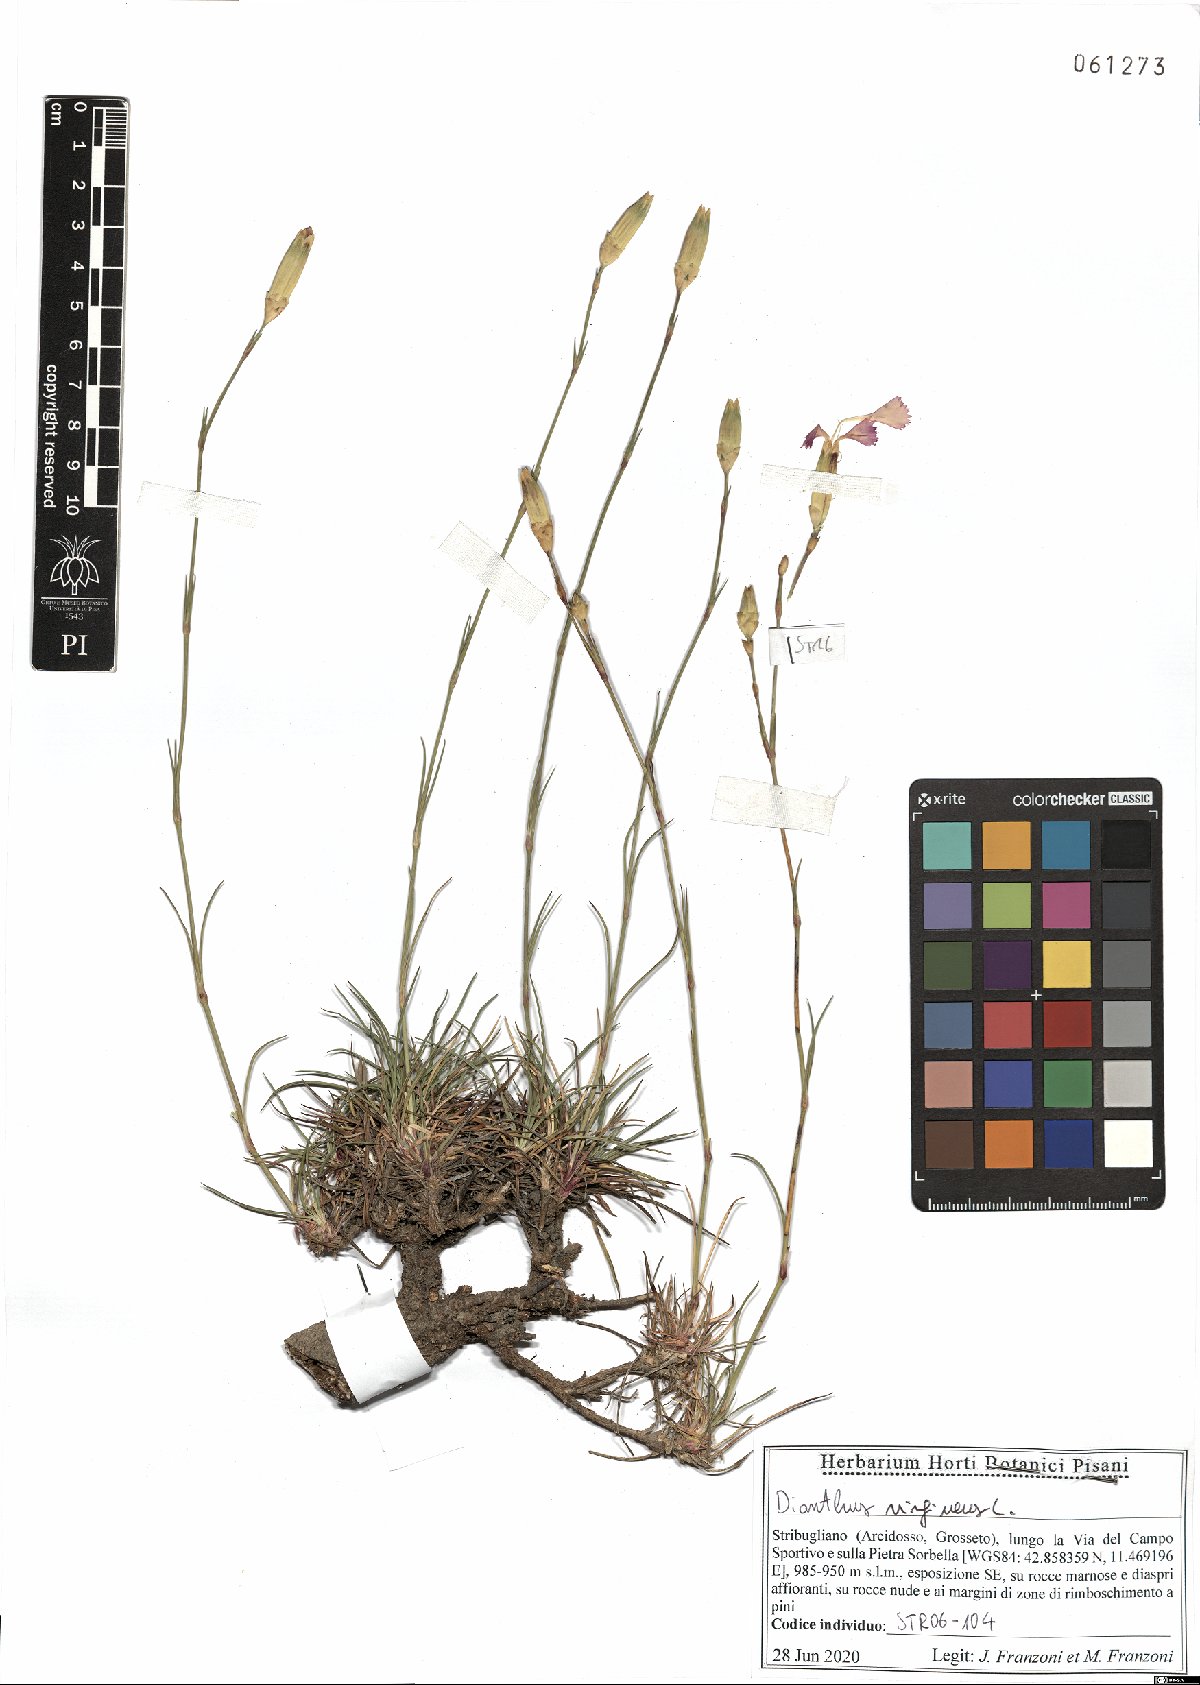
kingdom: Plantae
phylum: Tracheophyta
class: Magnoliopsida
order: Caryophyllales
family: Caryophyllaceae
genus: Dianthus
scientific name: Dianthus virgineus
